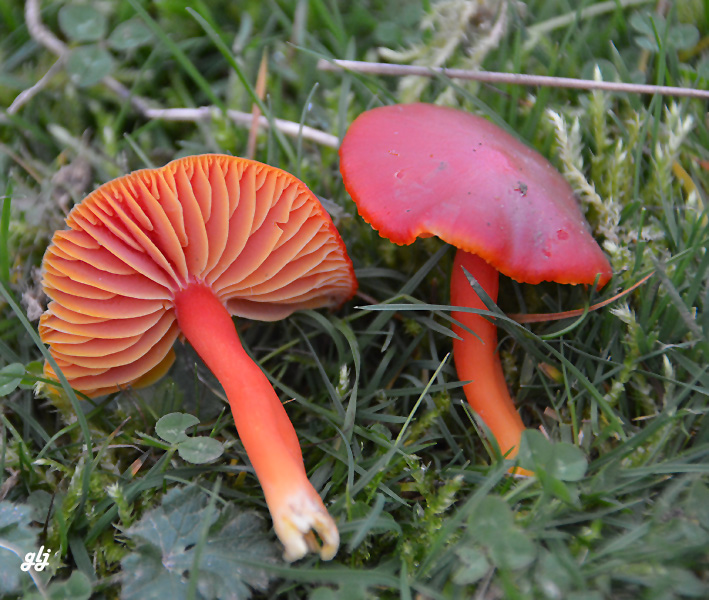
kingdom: Fungi
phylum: Basidiomycota
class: Agaricomycetes
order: Agaricales
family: Hygrophoraceae
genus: Hygrocybe
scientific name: Hygrocybe coccinea
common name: cinnober-vokshat
